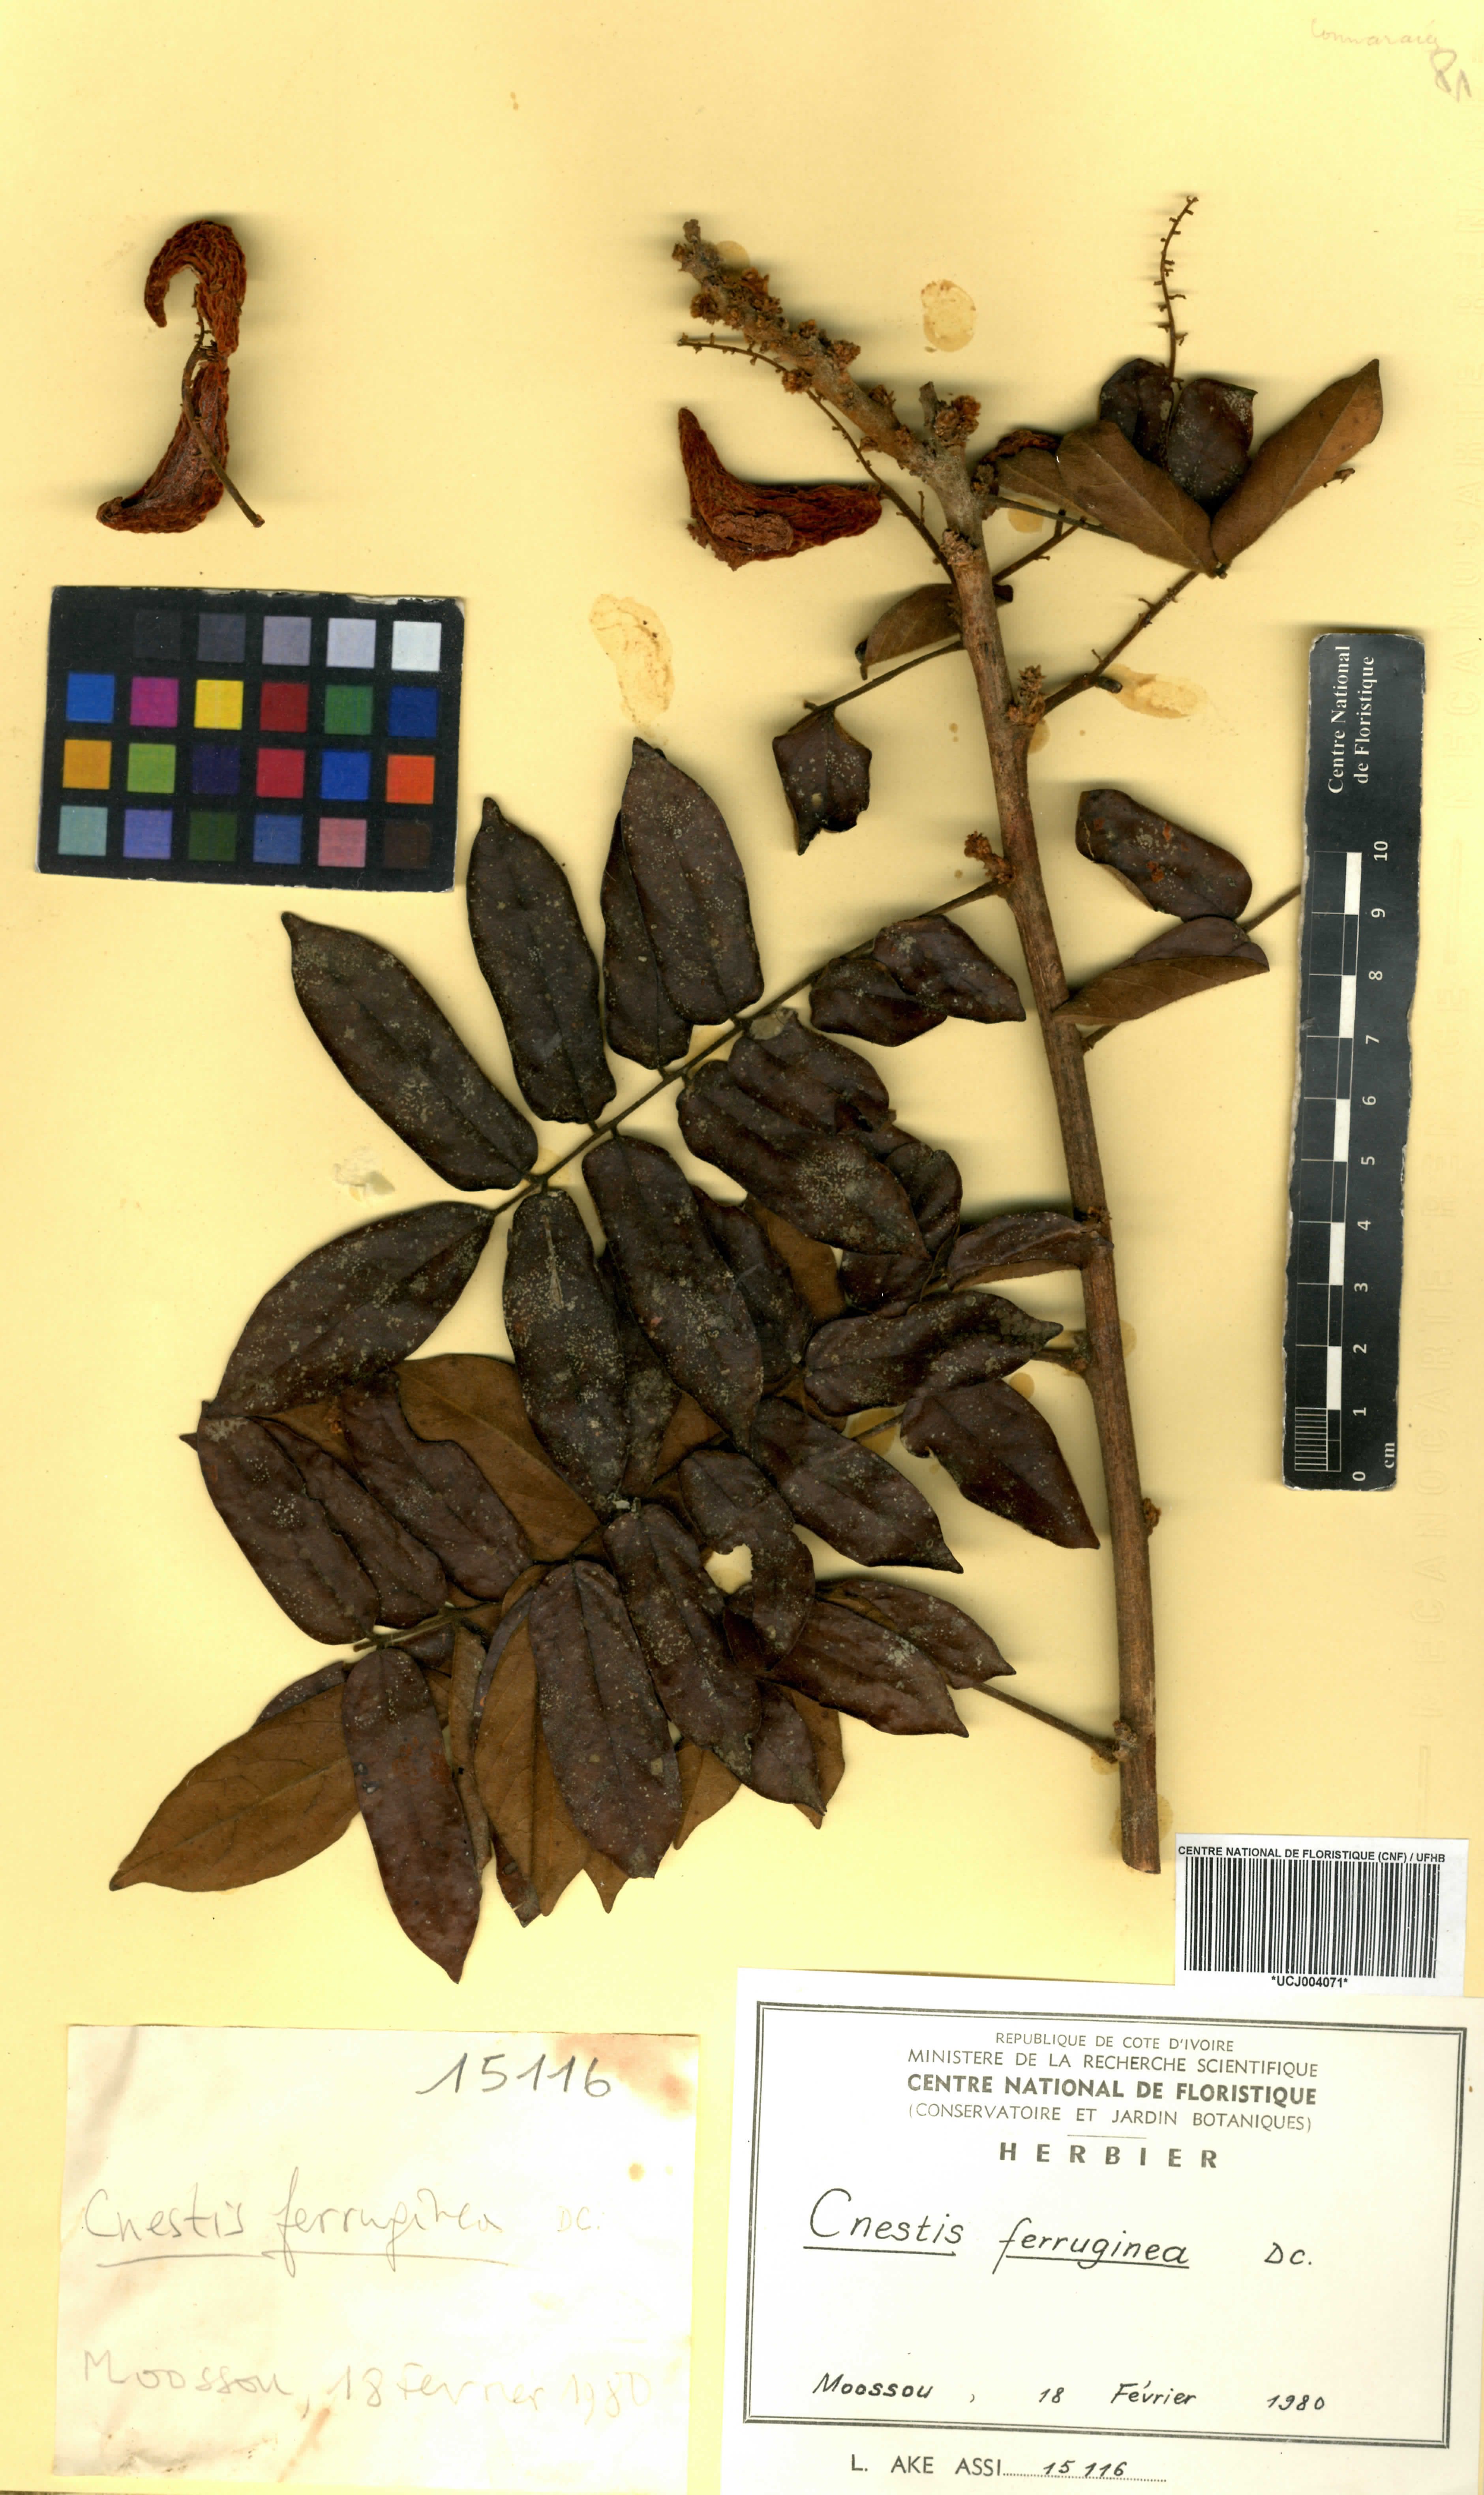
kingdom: Plantae
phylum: Tracheophyta
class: Magnoliopsida
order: Oxalidales
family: Connaraceae
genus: Cnestis
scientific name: Cnestis ferruginea
